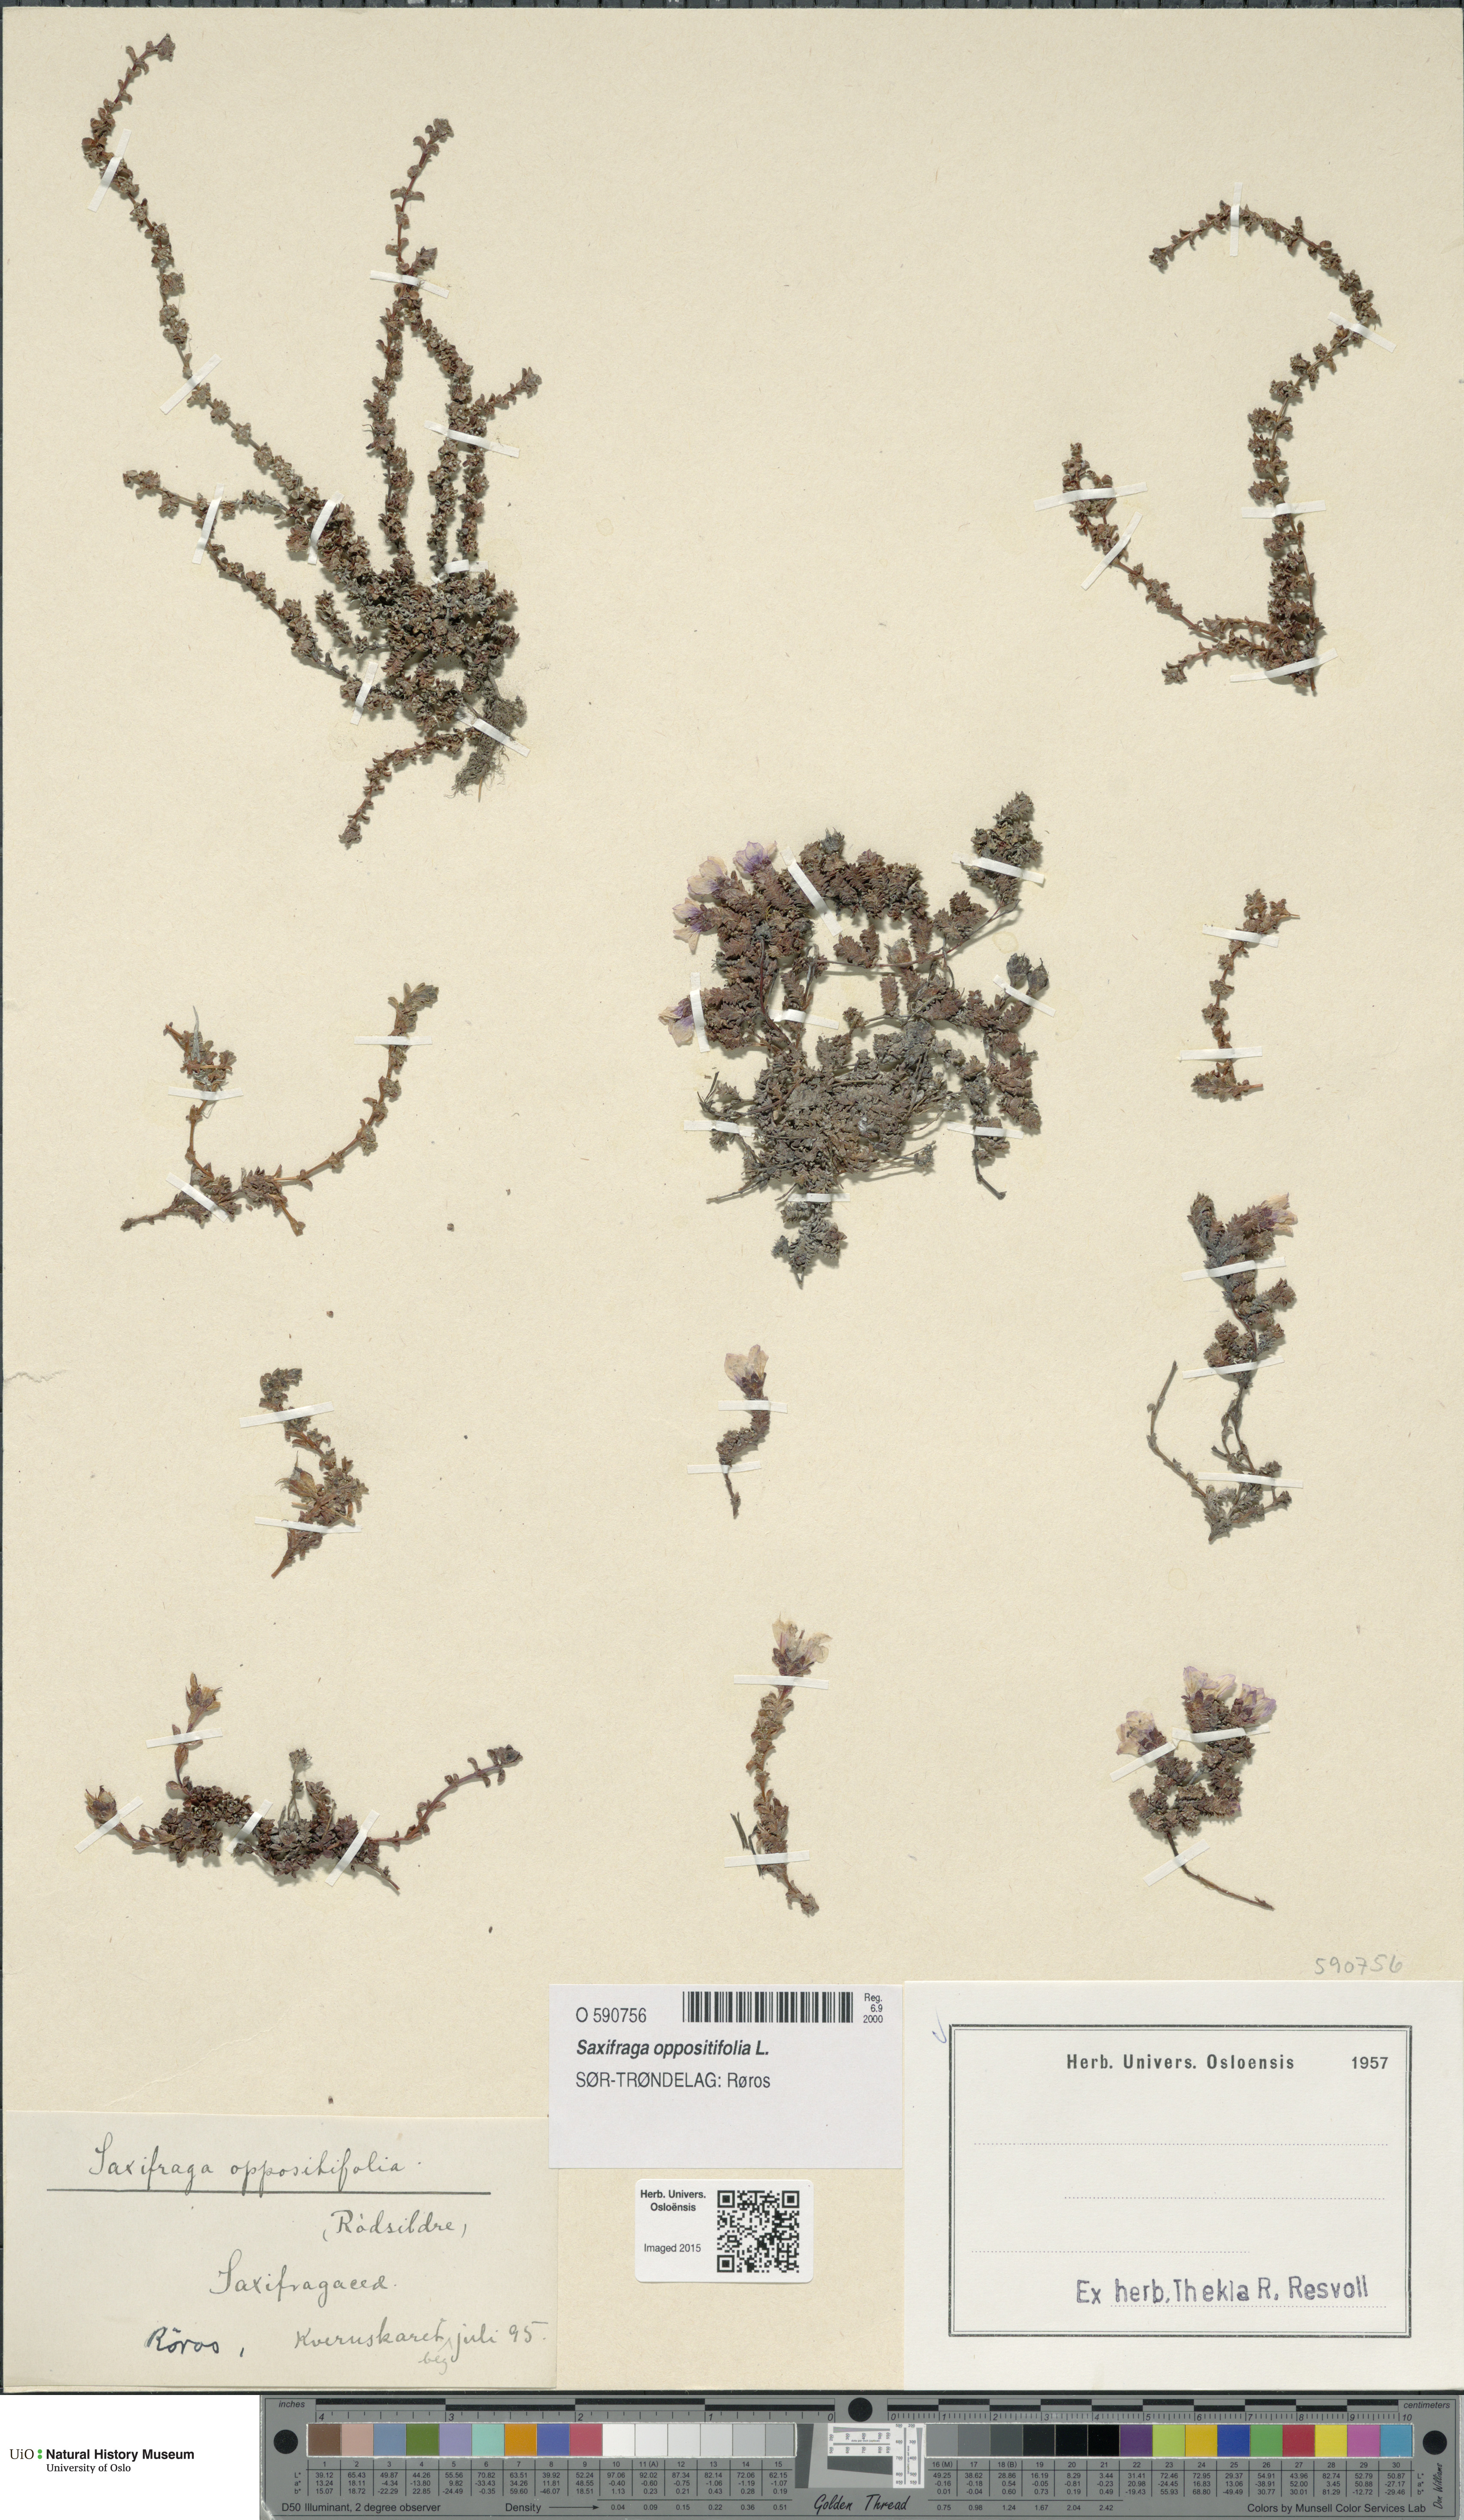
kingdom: Plantae
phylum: Tracheophyta
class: Magnoliopsida
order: Saxifragales
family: Saxifragaceae
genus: Saxifraga
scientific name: Saxifraga oppositifolia
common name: Purple saxifrage
